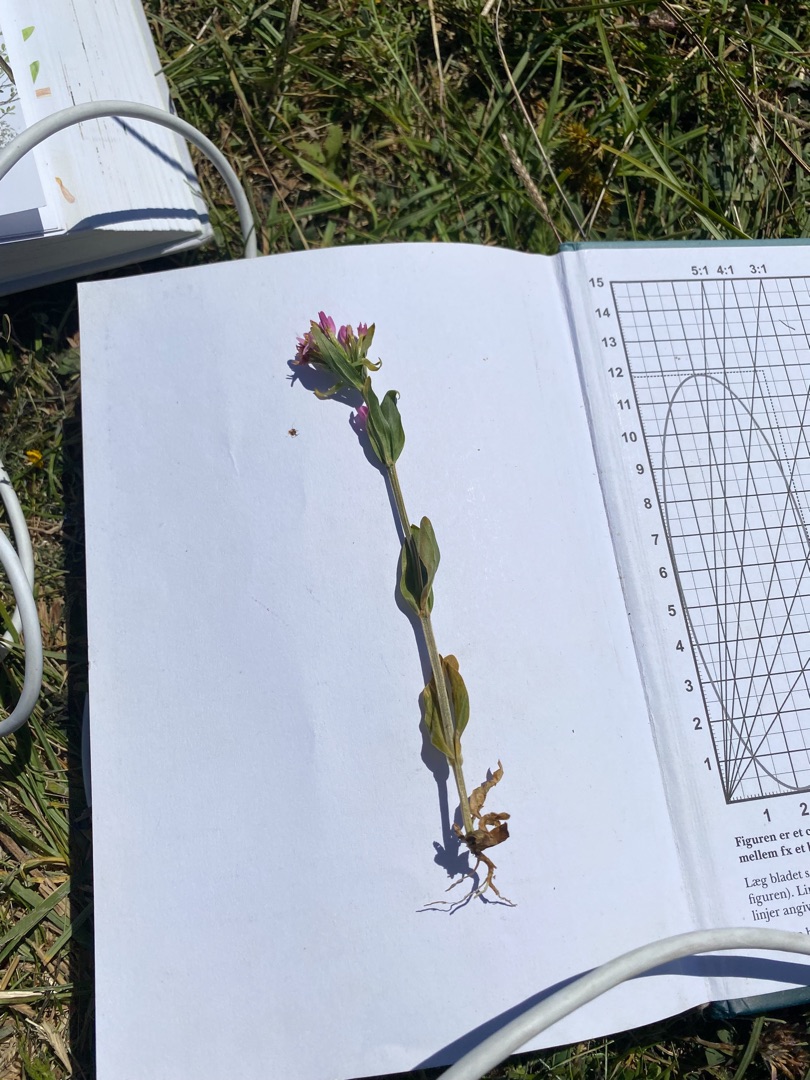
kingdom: Plantae
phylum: Tracheophyta
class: Magnoliopsida
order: Gentianales
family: Gentianaceae
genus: Centaurium
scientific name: Centaurium erythraea
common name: Mark-tusindgylden
